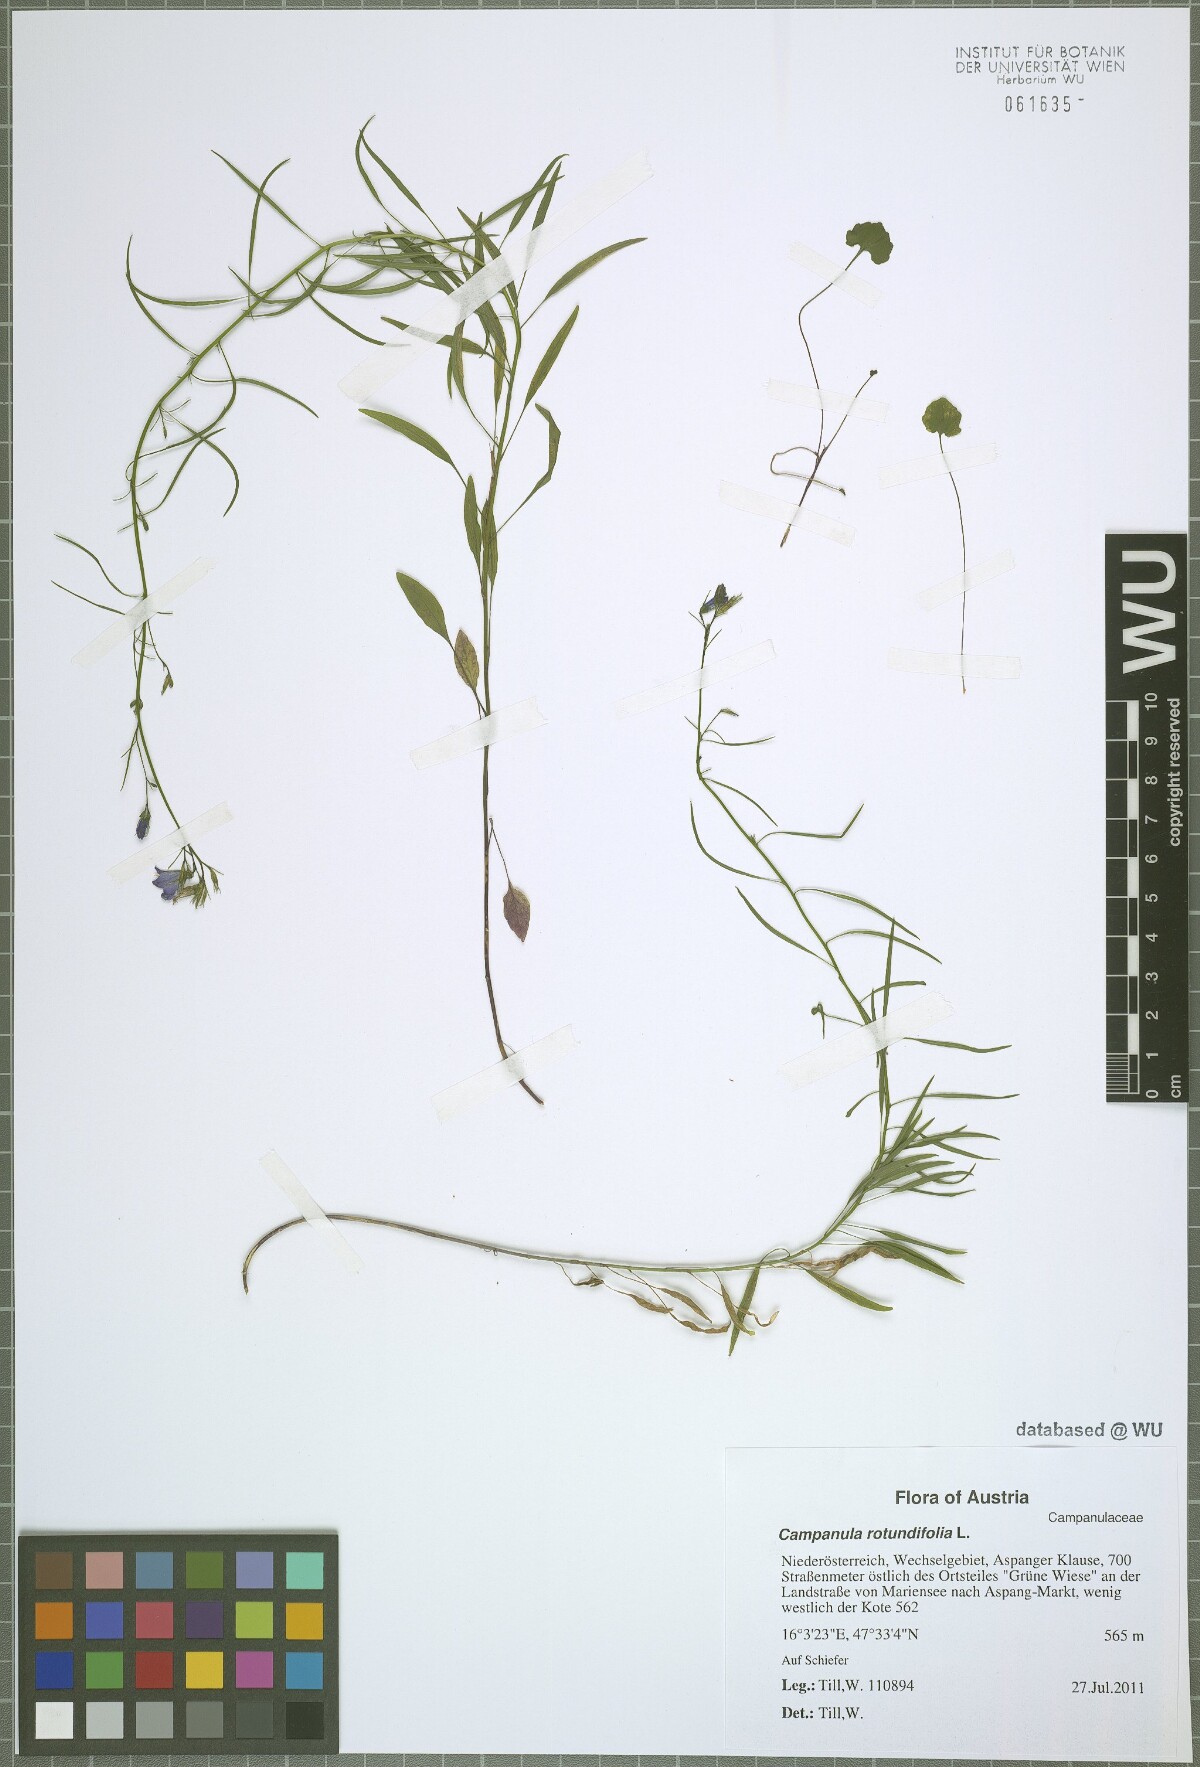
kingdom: Plantae
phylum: Tracheophyta
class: Magnoliopsida
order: Asterales
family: Campanulaceae
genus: Campanula
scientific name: Campanula rotundifolia
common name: Harebell
